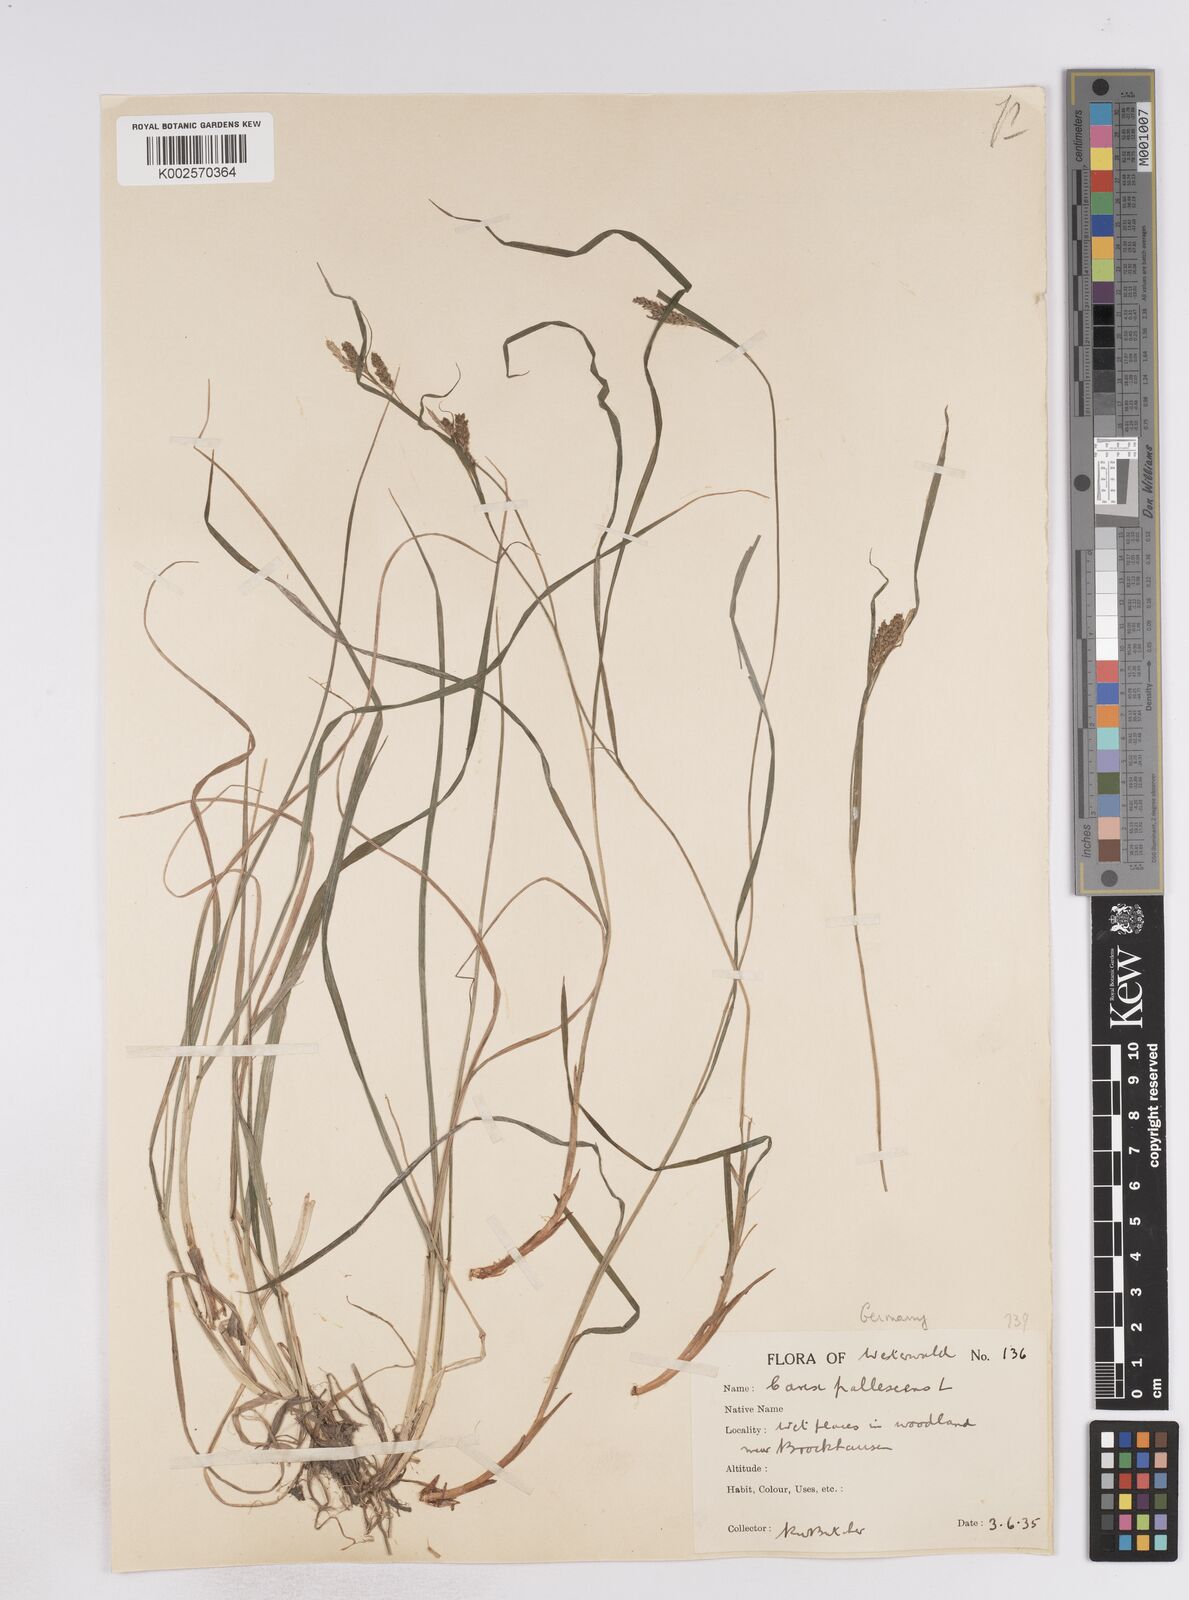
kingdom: Plantae
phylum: Tracheophyta
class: Liliopsida
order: Poales
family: Cyperaceae
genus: Carex
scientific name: Carex pallescens
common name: Pale sedge
